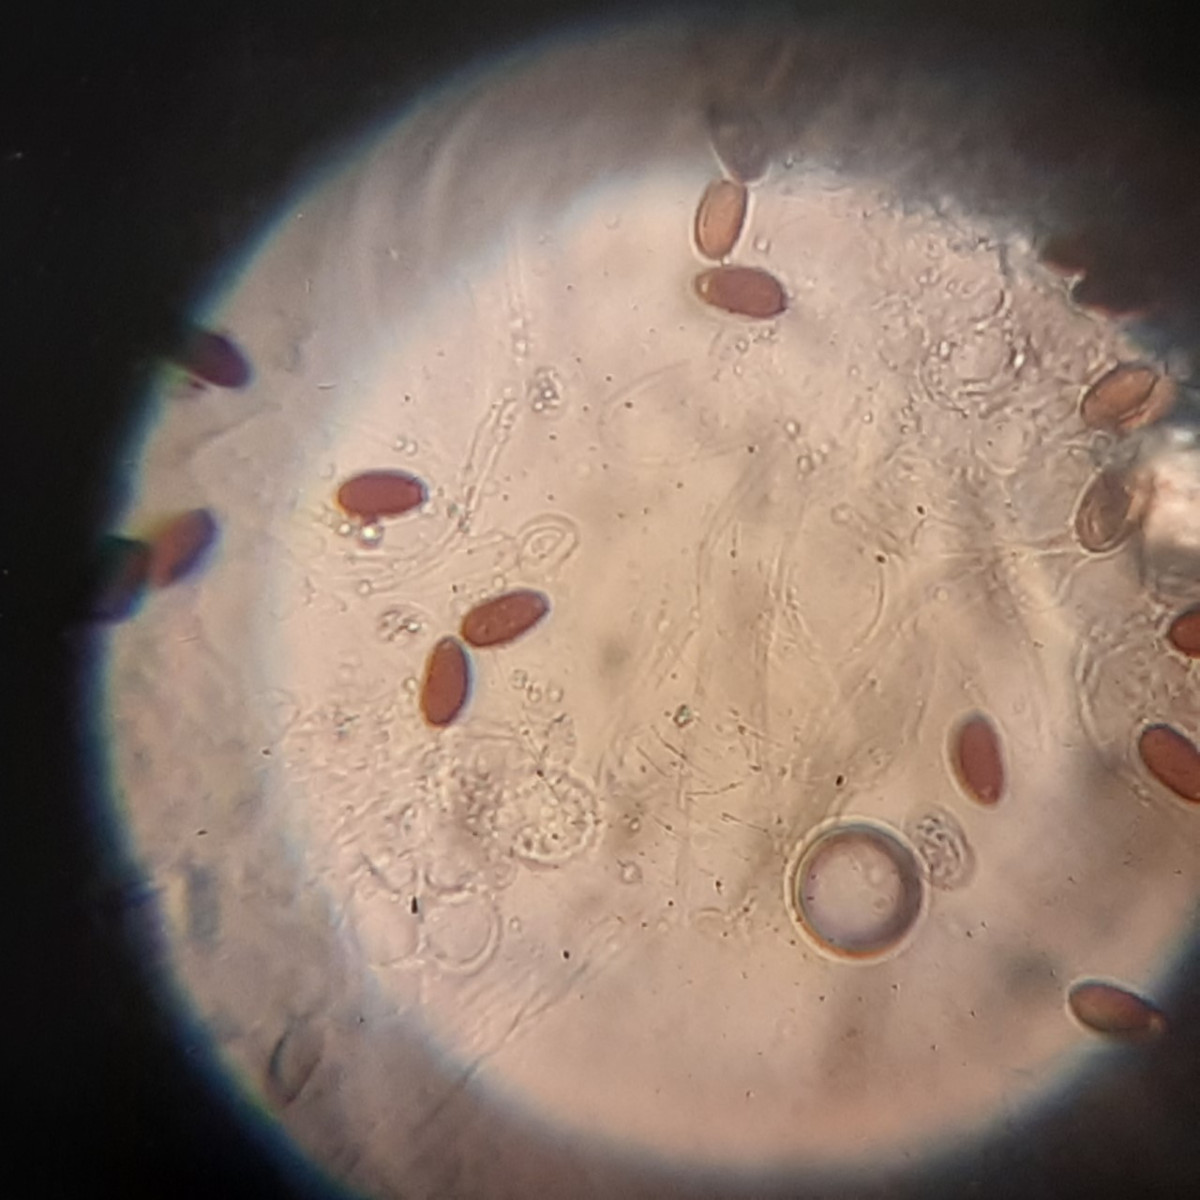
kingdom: Fungi
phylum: Basidiomycota
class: Agaricomycetes
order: Agaricales
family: Psathyrellaceae
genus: Psathyrella
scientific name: Psathyrella
